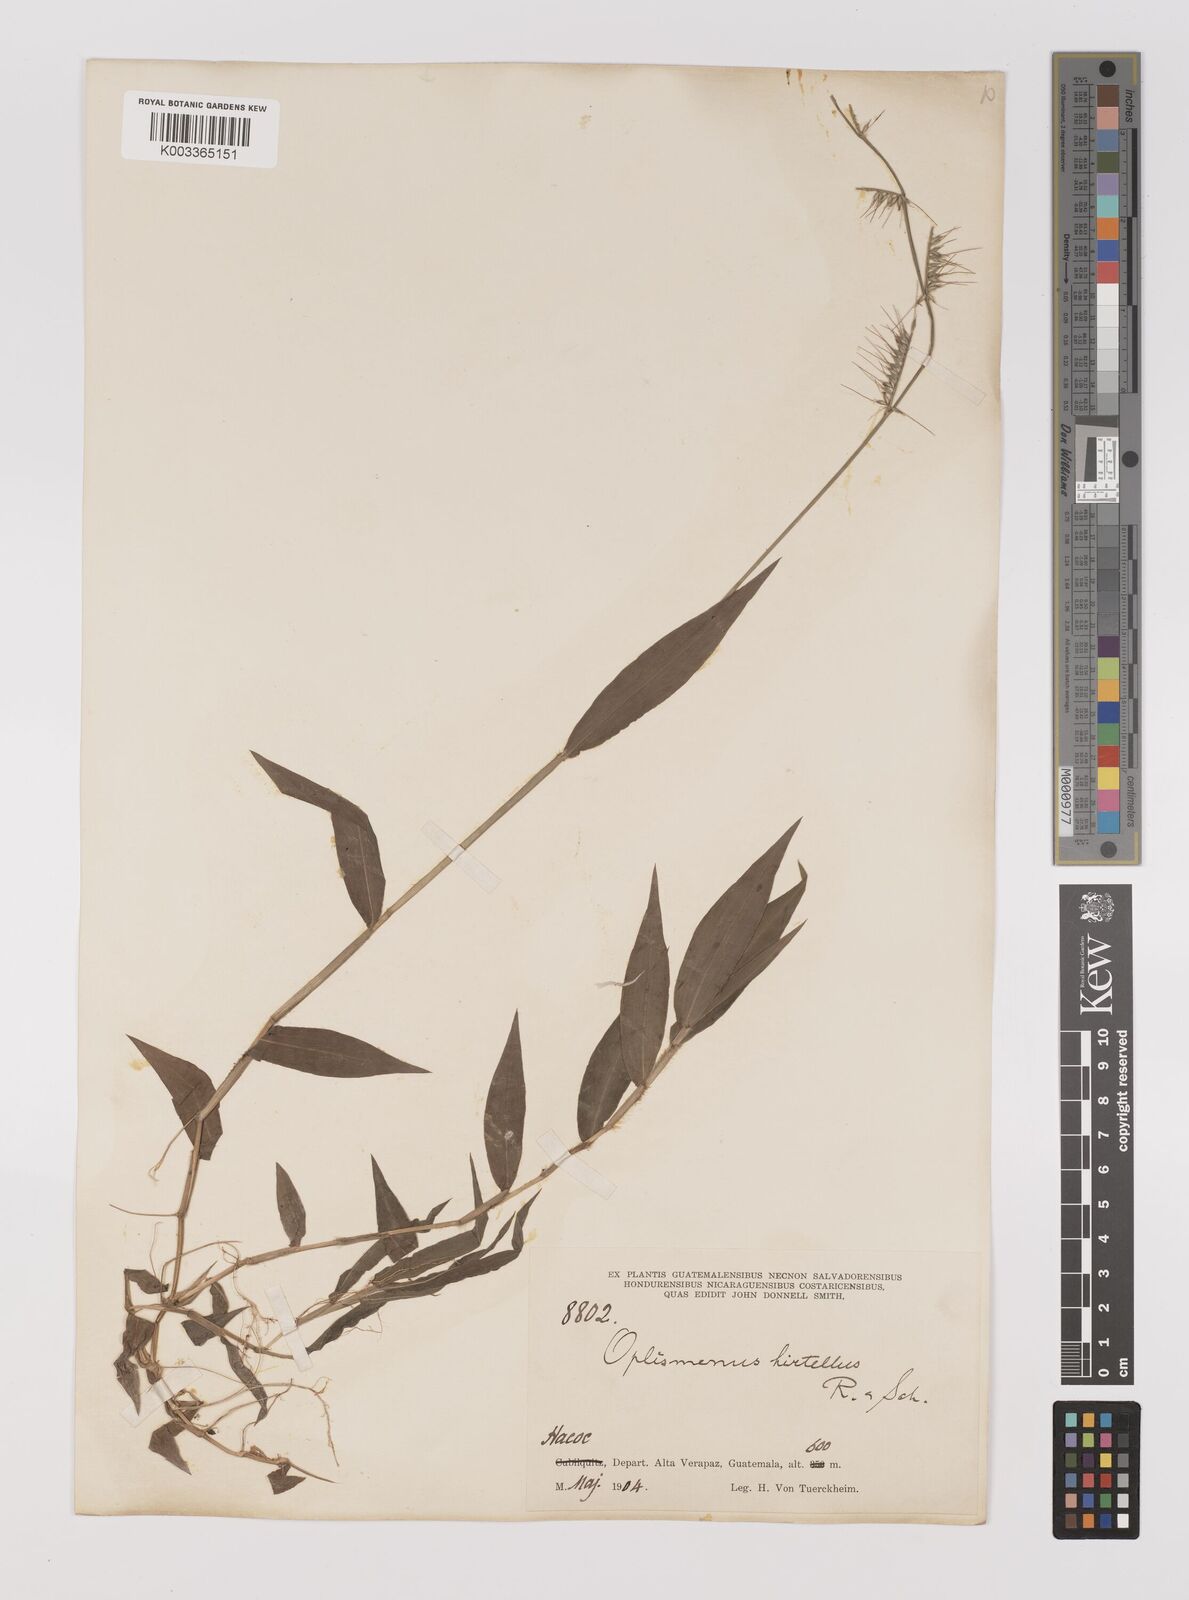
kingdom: Plantae
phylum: Tracheophyta
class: Liliopsida
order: Poales
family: Poaceae
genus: Oplismenus
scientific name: Oplismenus hirtellus
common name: Basketgrass
